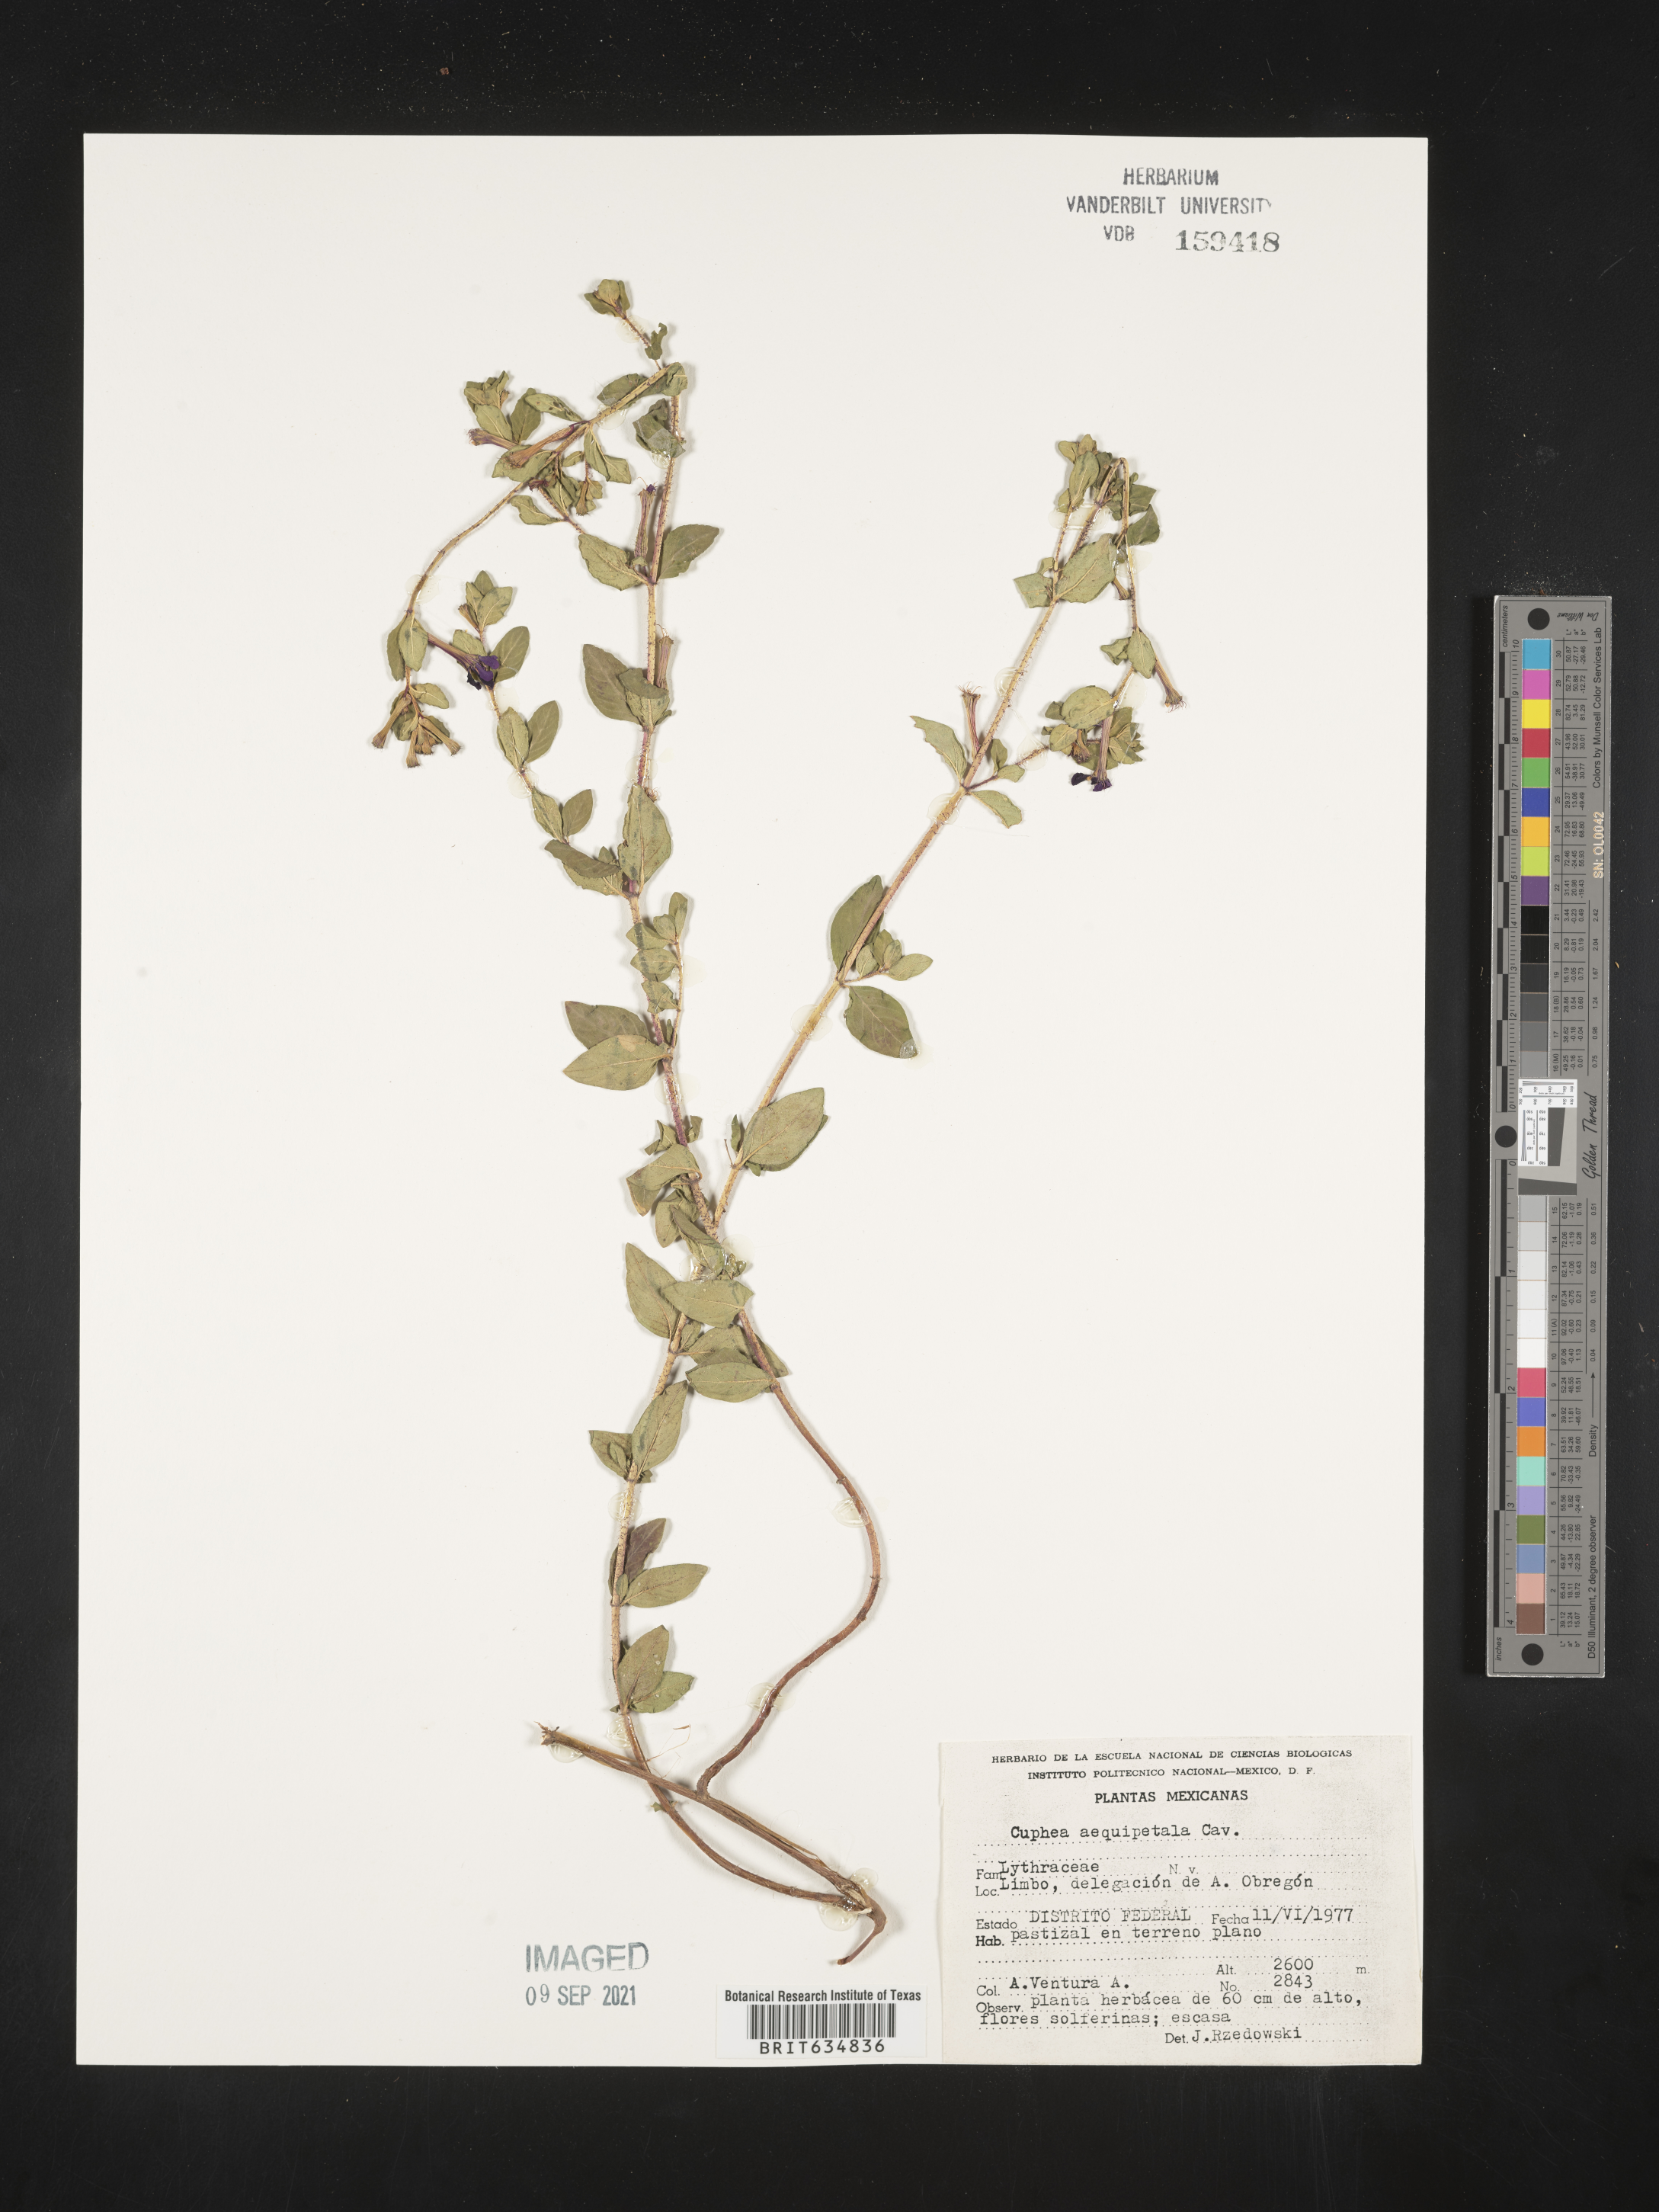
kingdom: Plantae
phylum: Tracheophyta
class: Magnoliopsida
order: Myrtales
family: Lythraceae
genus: Cuphea
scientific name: Cuphea
